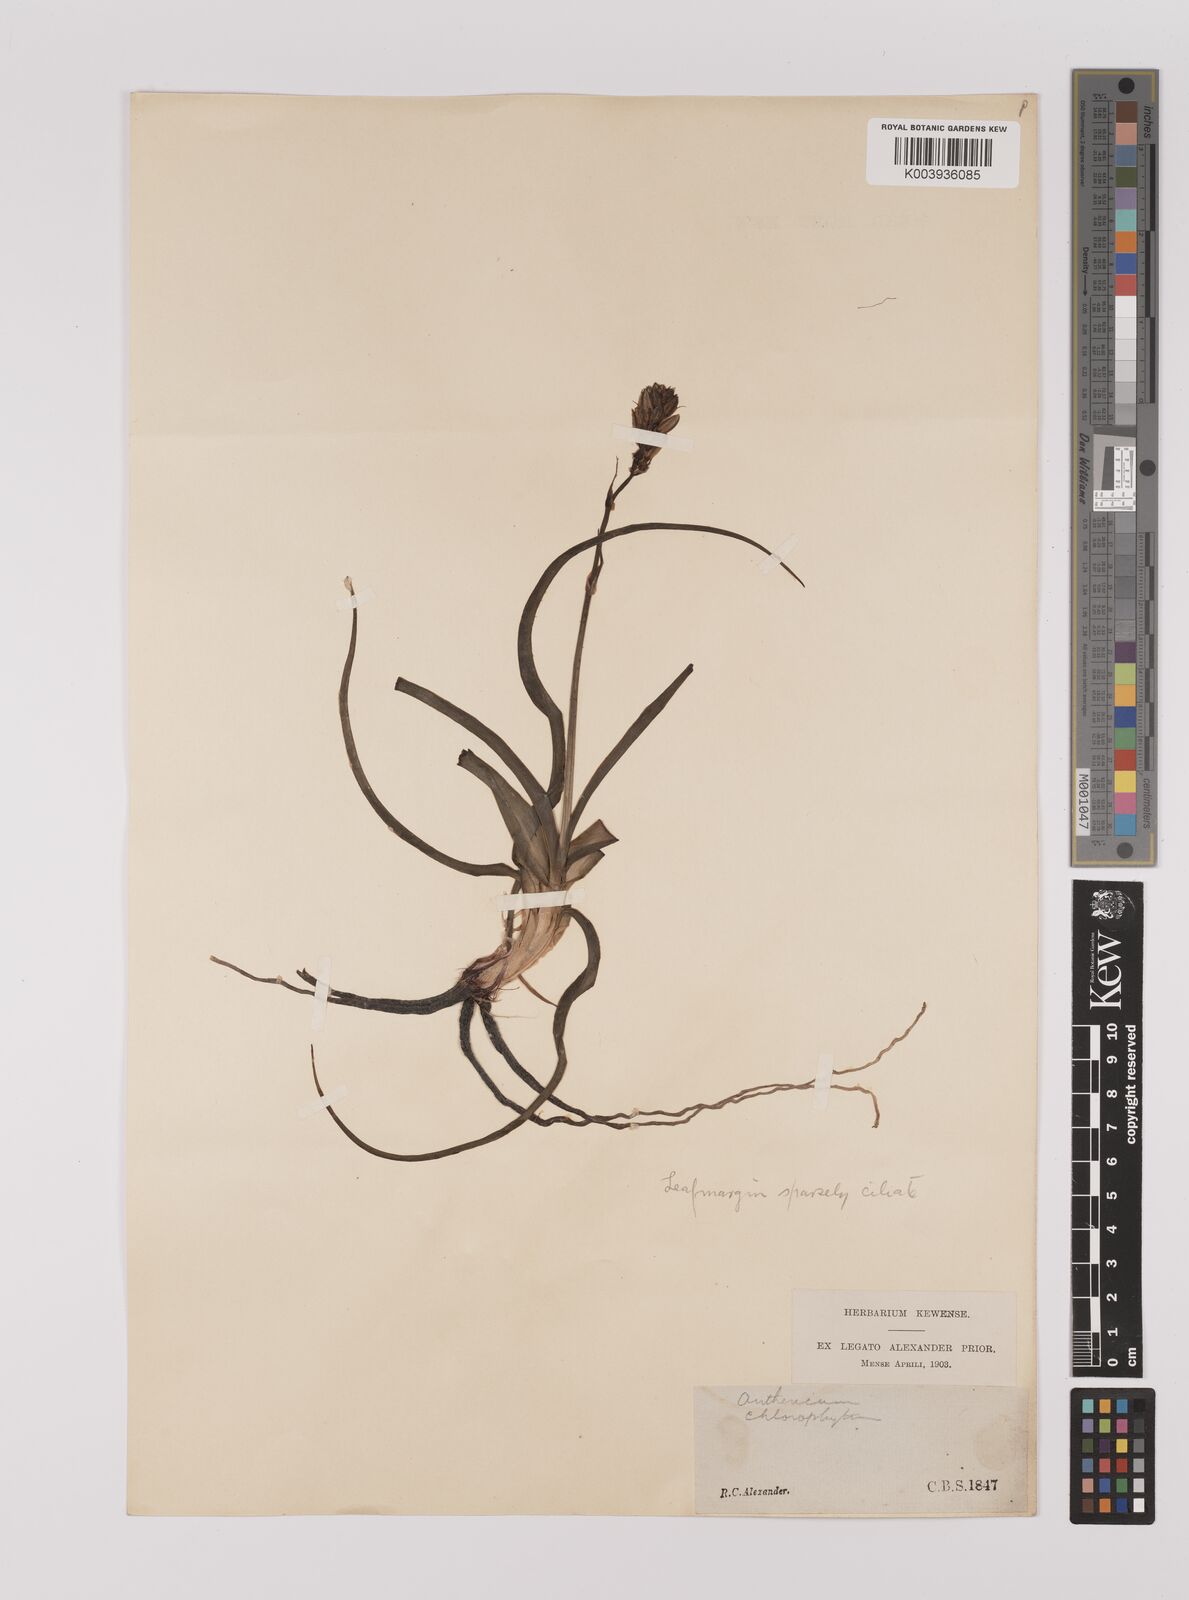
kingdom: Plantae
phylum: Tracheophyta
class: Liliopsida
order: Asparagales
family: Asparagaceae
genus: Chlorophytum
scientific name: Chlorophytum triflorum
